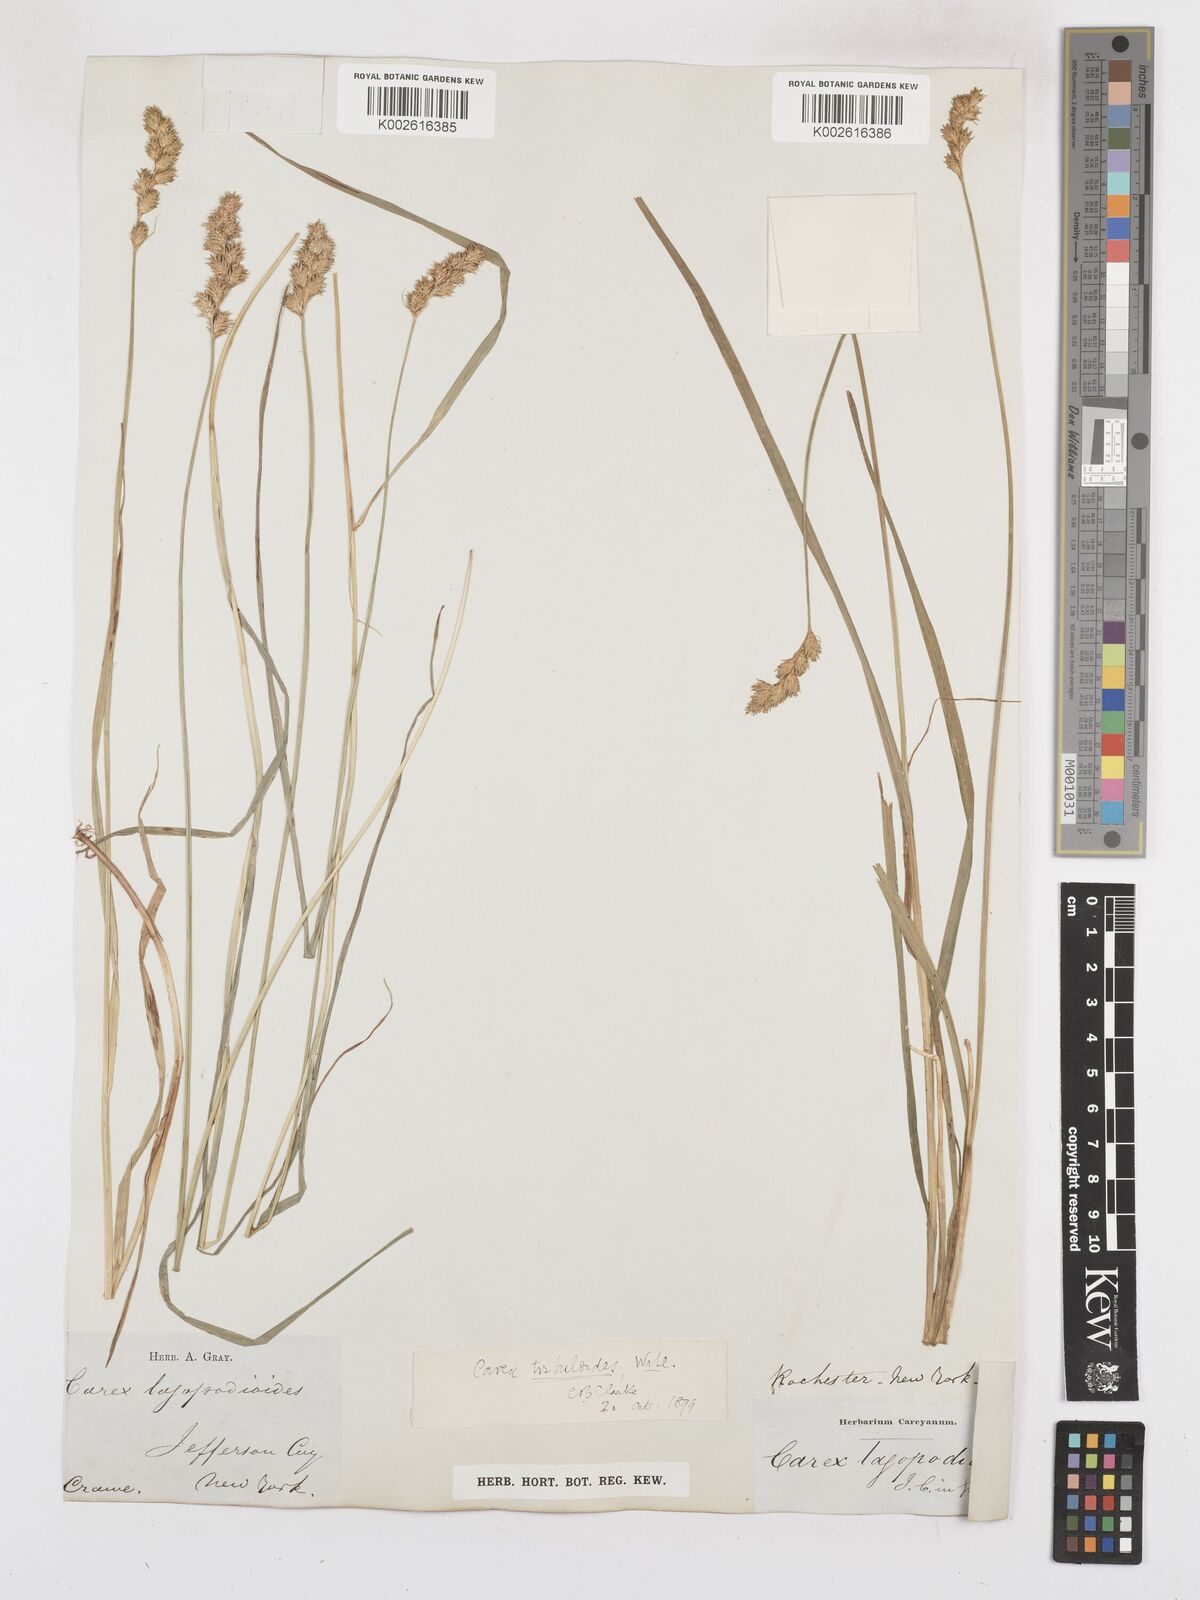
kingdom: Plantae
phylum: Tracheophyta
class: Liliopsida
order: Poales
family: Cyperaceae
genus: Carex
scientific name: Carex tribuloides
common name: Blunt broom sedge
